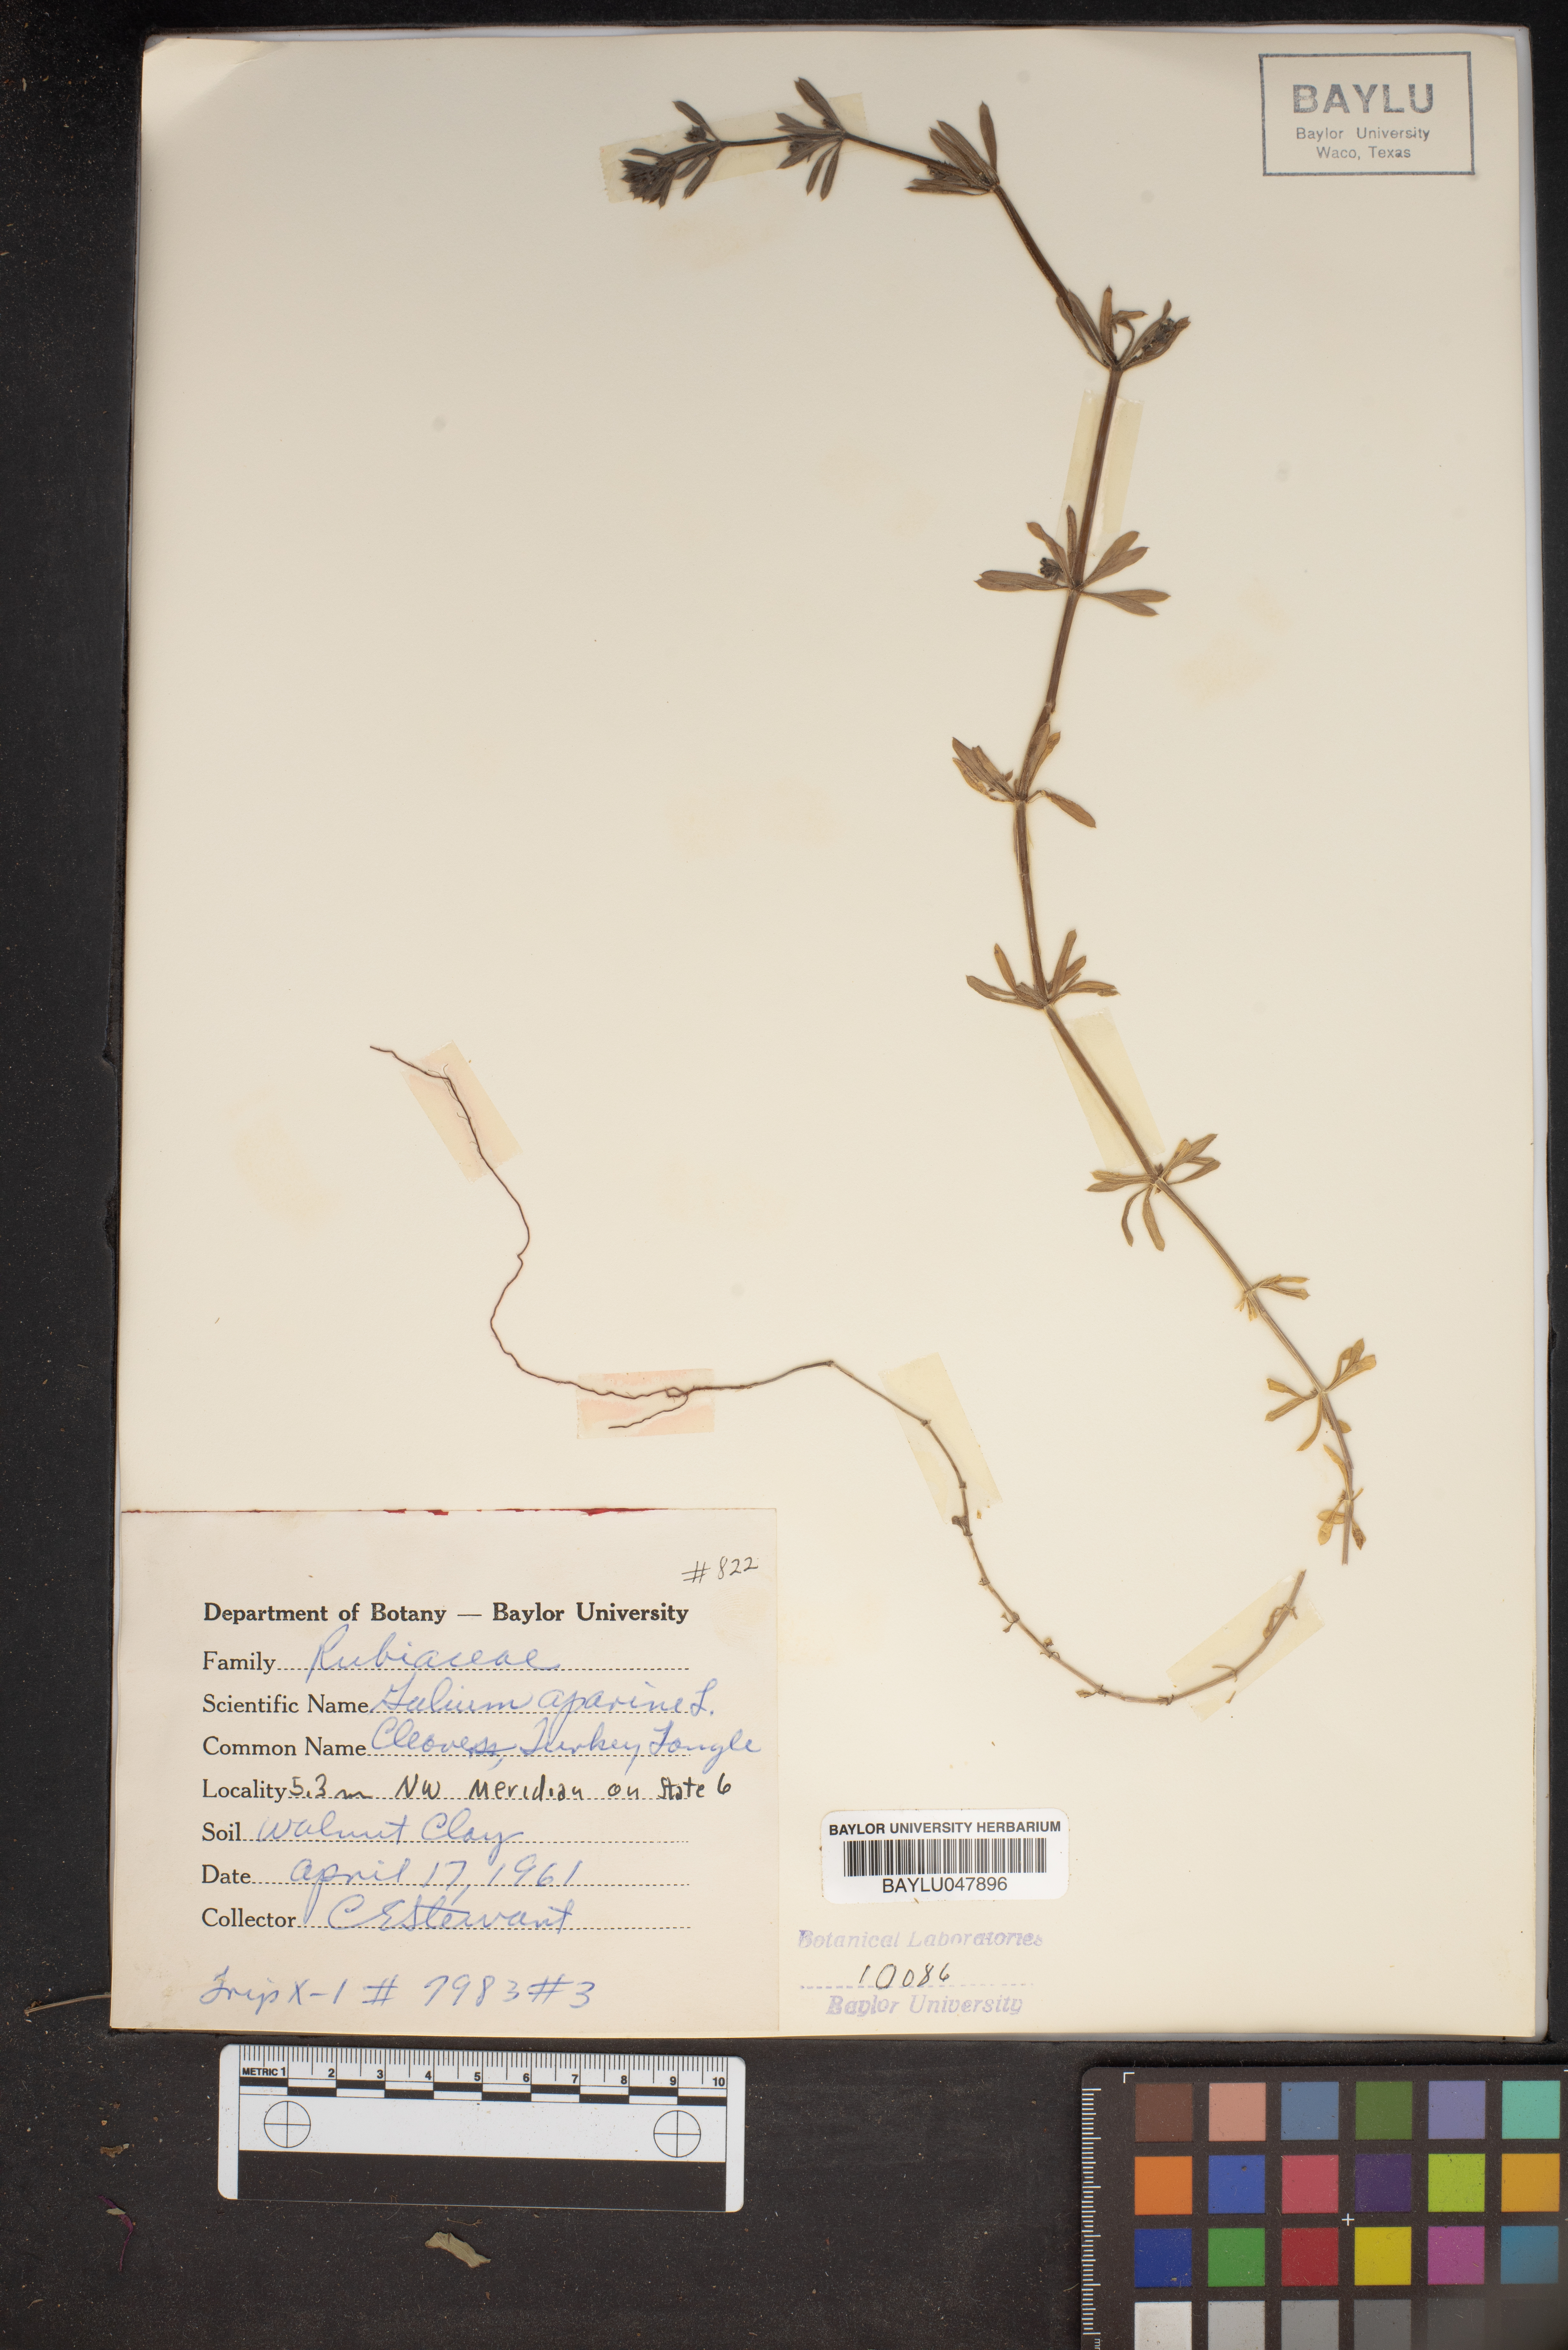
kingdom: Plantae
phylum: Tracheophyta
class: Magnoliopsida
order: Gentianales
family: Rubiaceae
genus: Galium
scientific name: Galium aparine
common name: Cleavers
